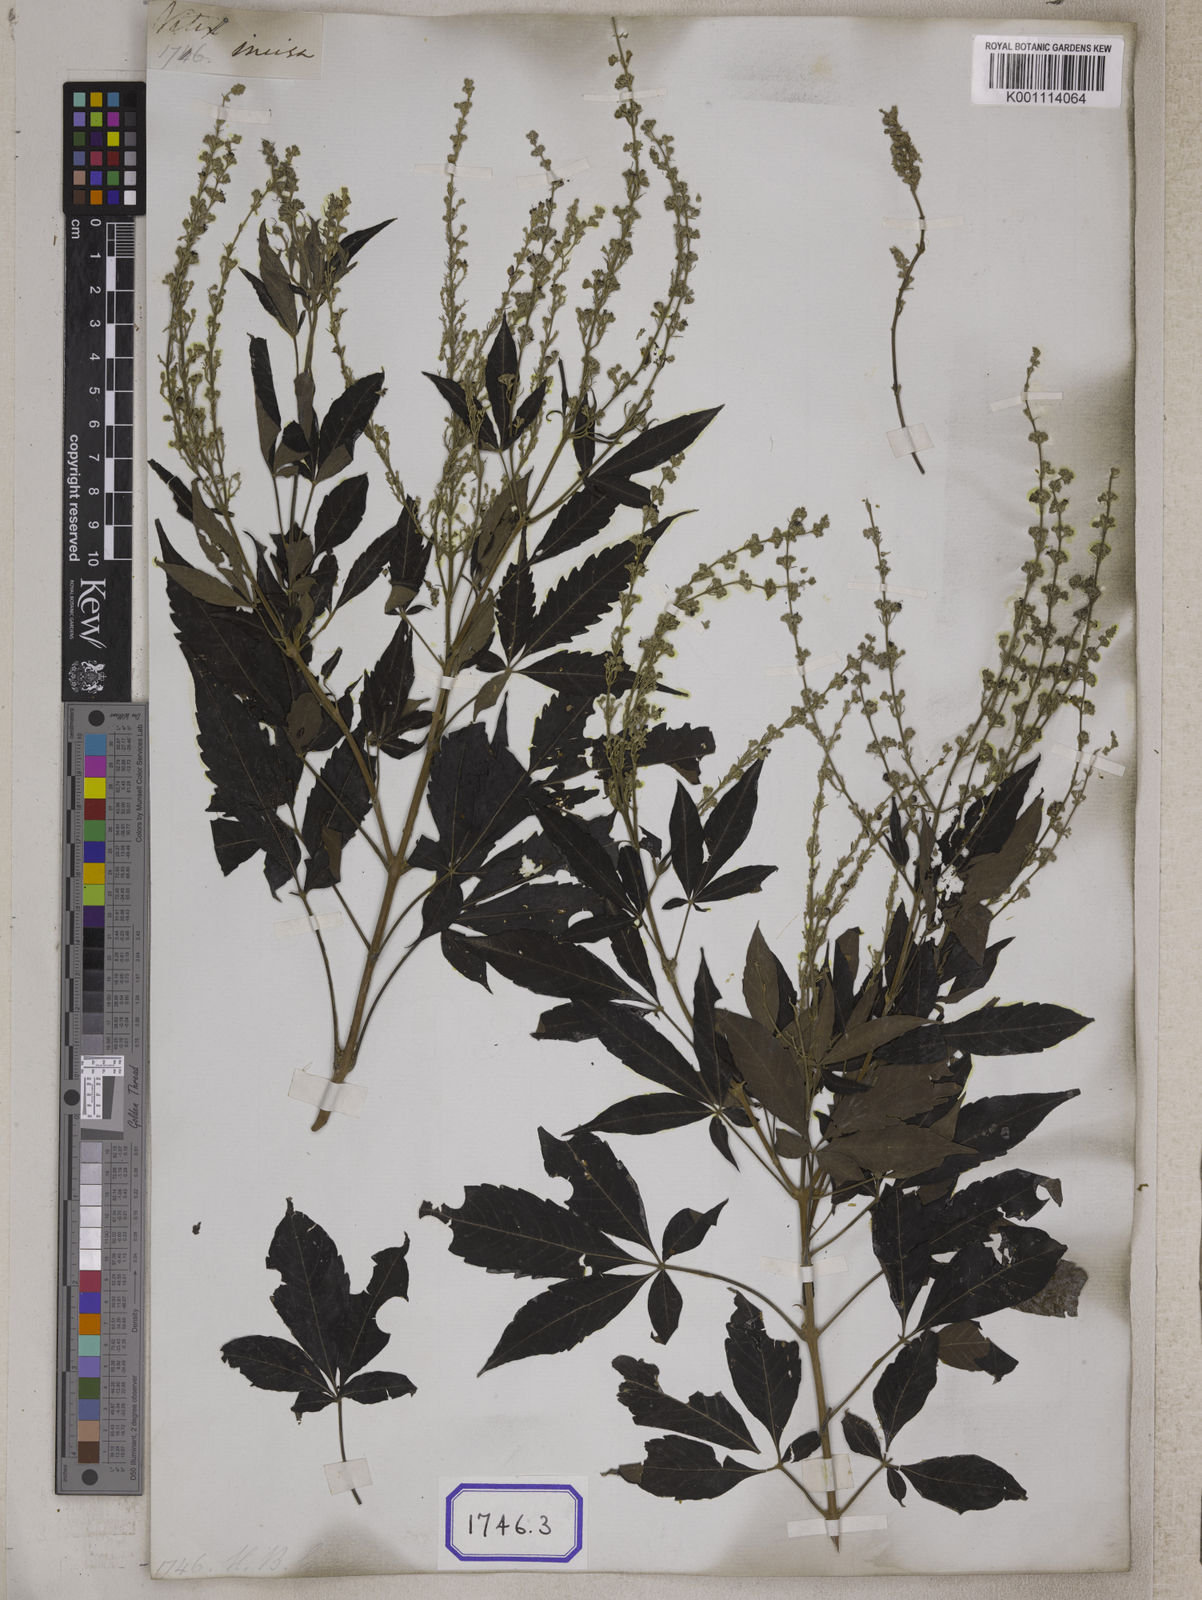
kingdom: Plantae
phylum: Tracheophyta
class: Magnoliopsida
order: Lamiales
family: Lamiaceae
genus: Vitex
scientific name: Vitex negundo
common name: Chinese chastetree
